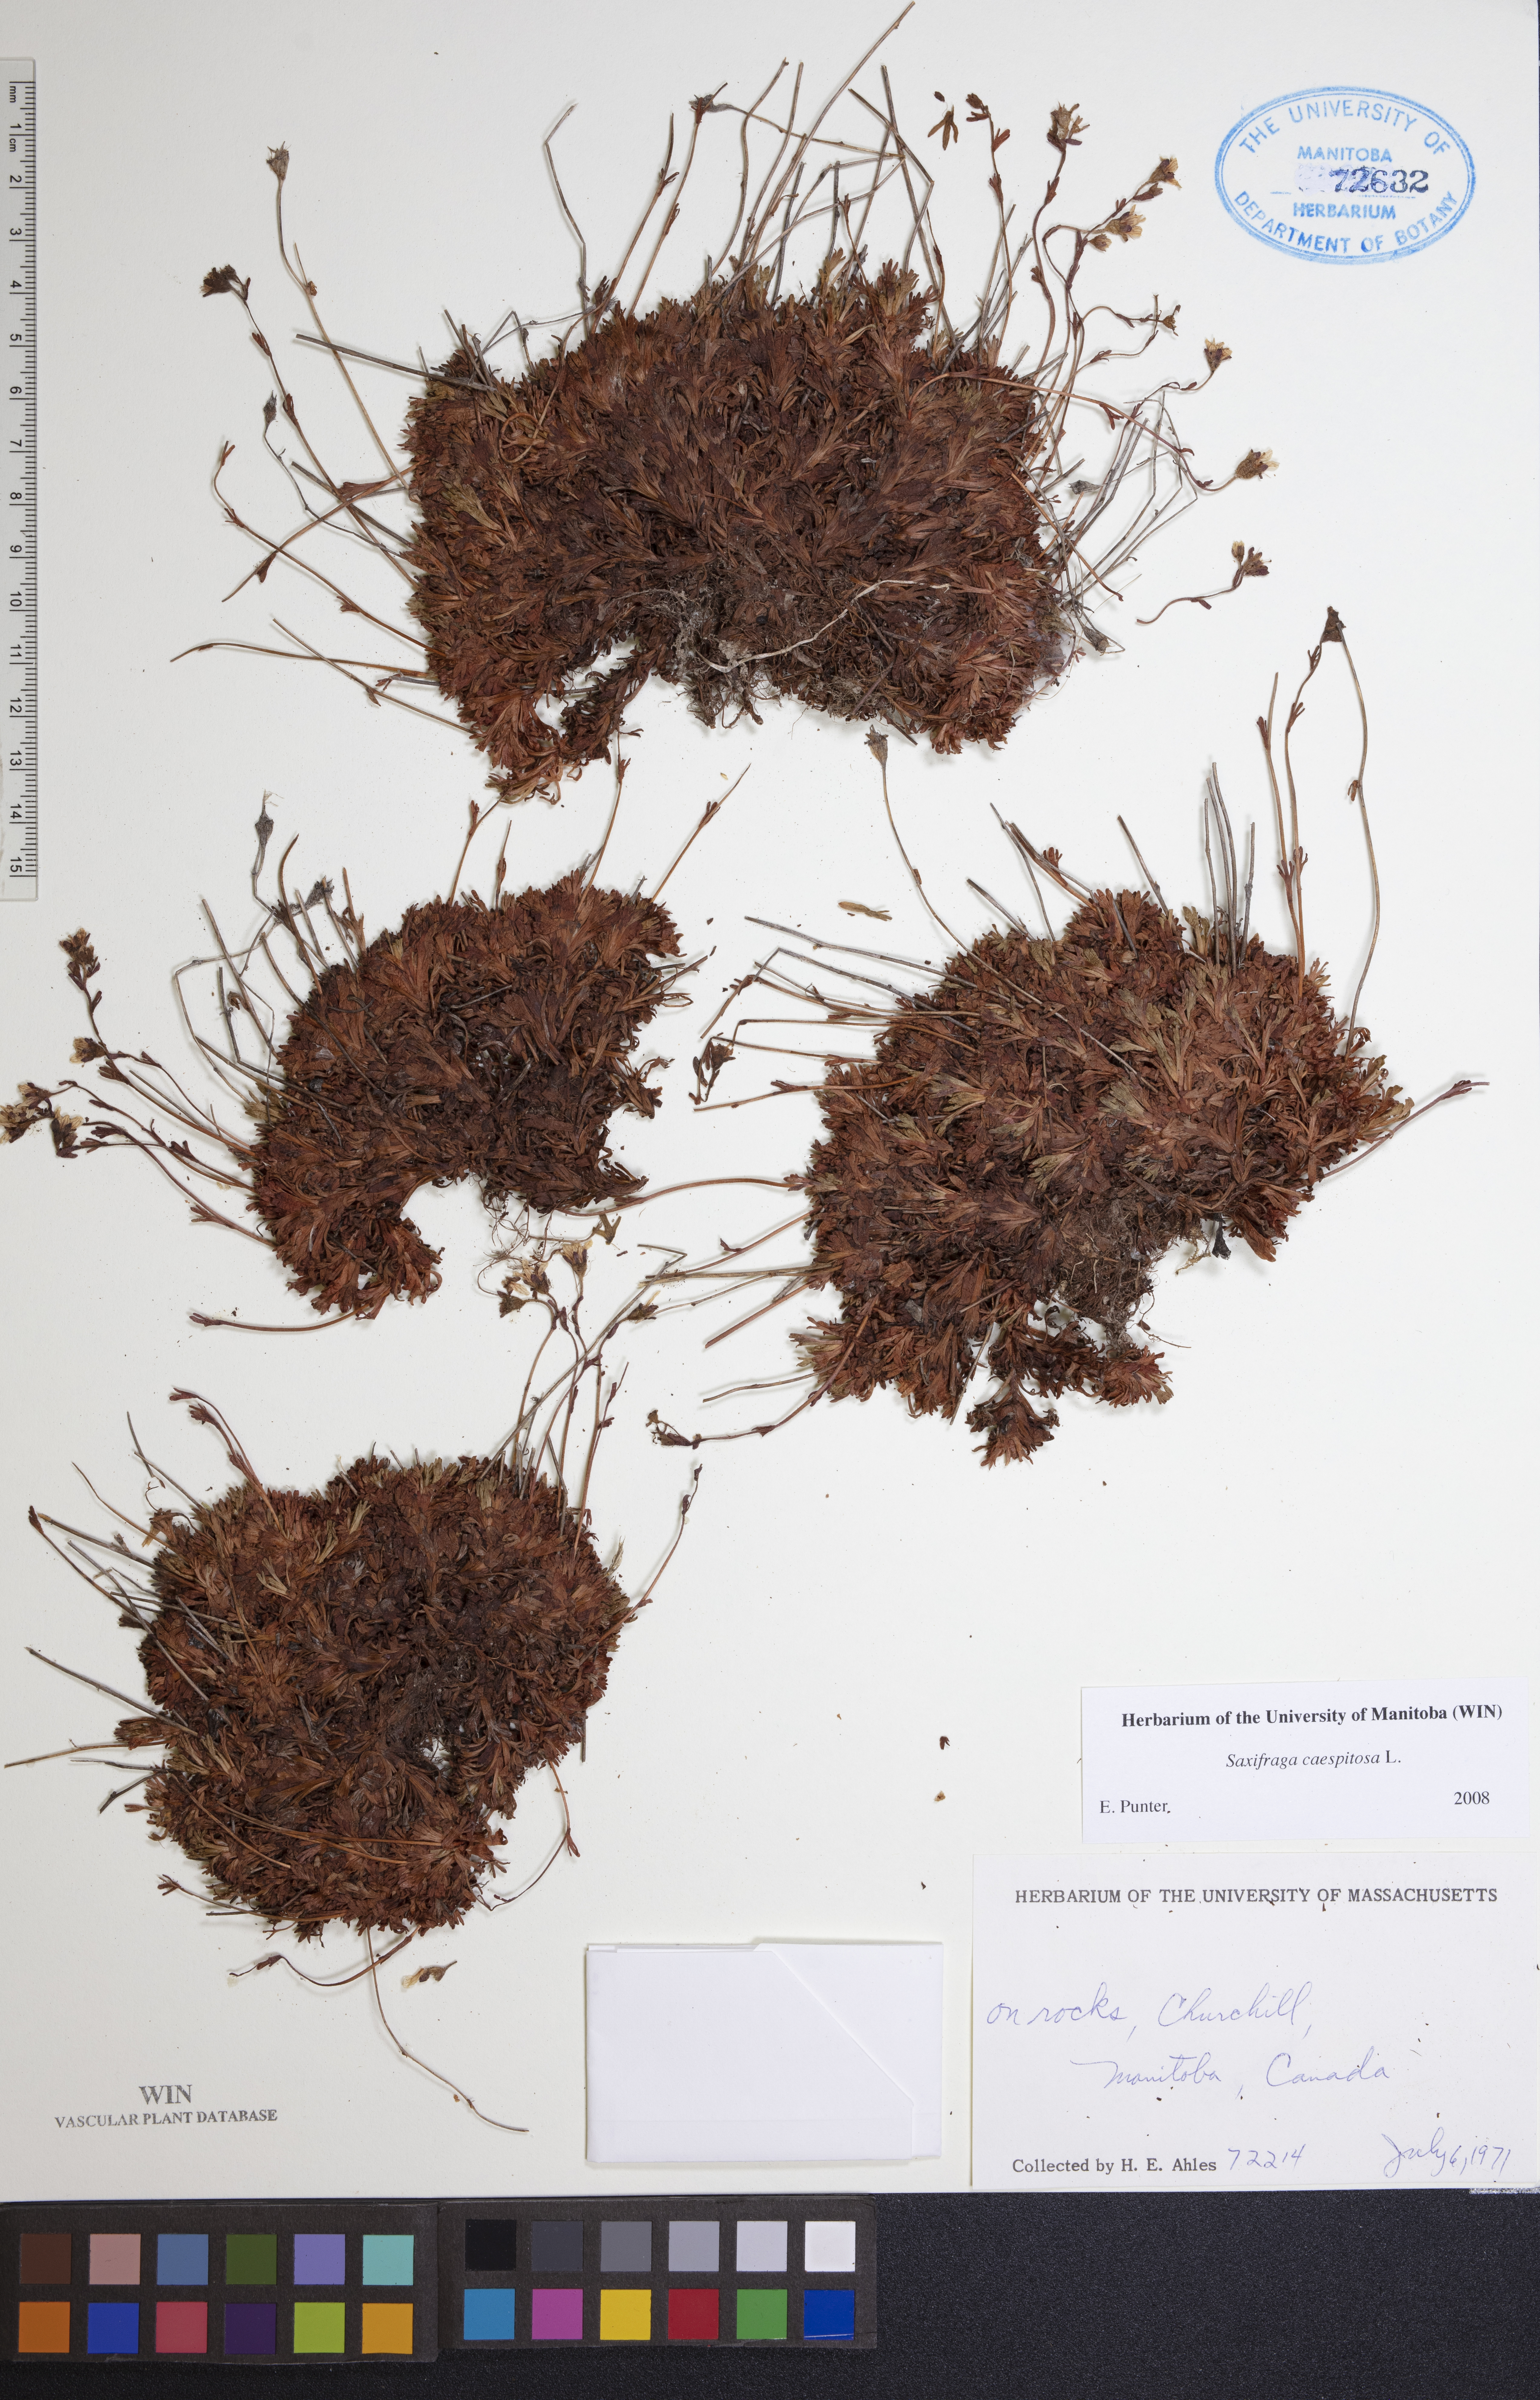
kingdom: Plantae
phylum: Tracheophyta
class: Magnoliopsida
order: Saxifragales
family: Saxifragaceae
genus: Saxifraga
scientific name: Saxifraga cespitosa
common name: Tufted saxifrage
